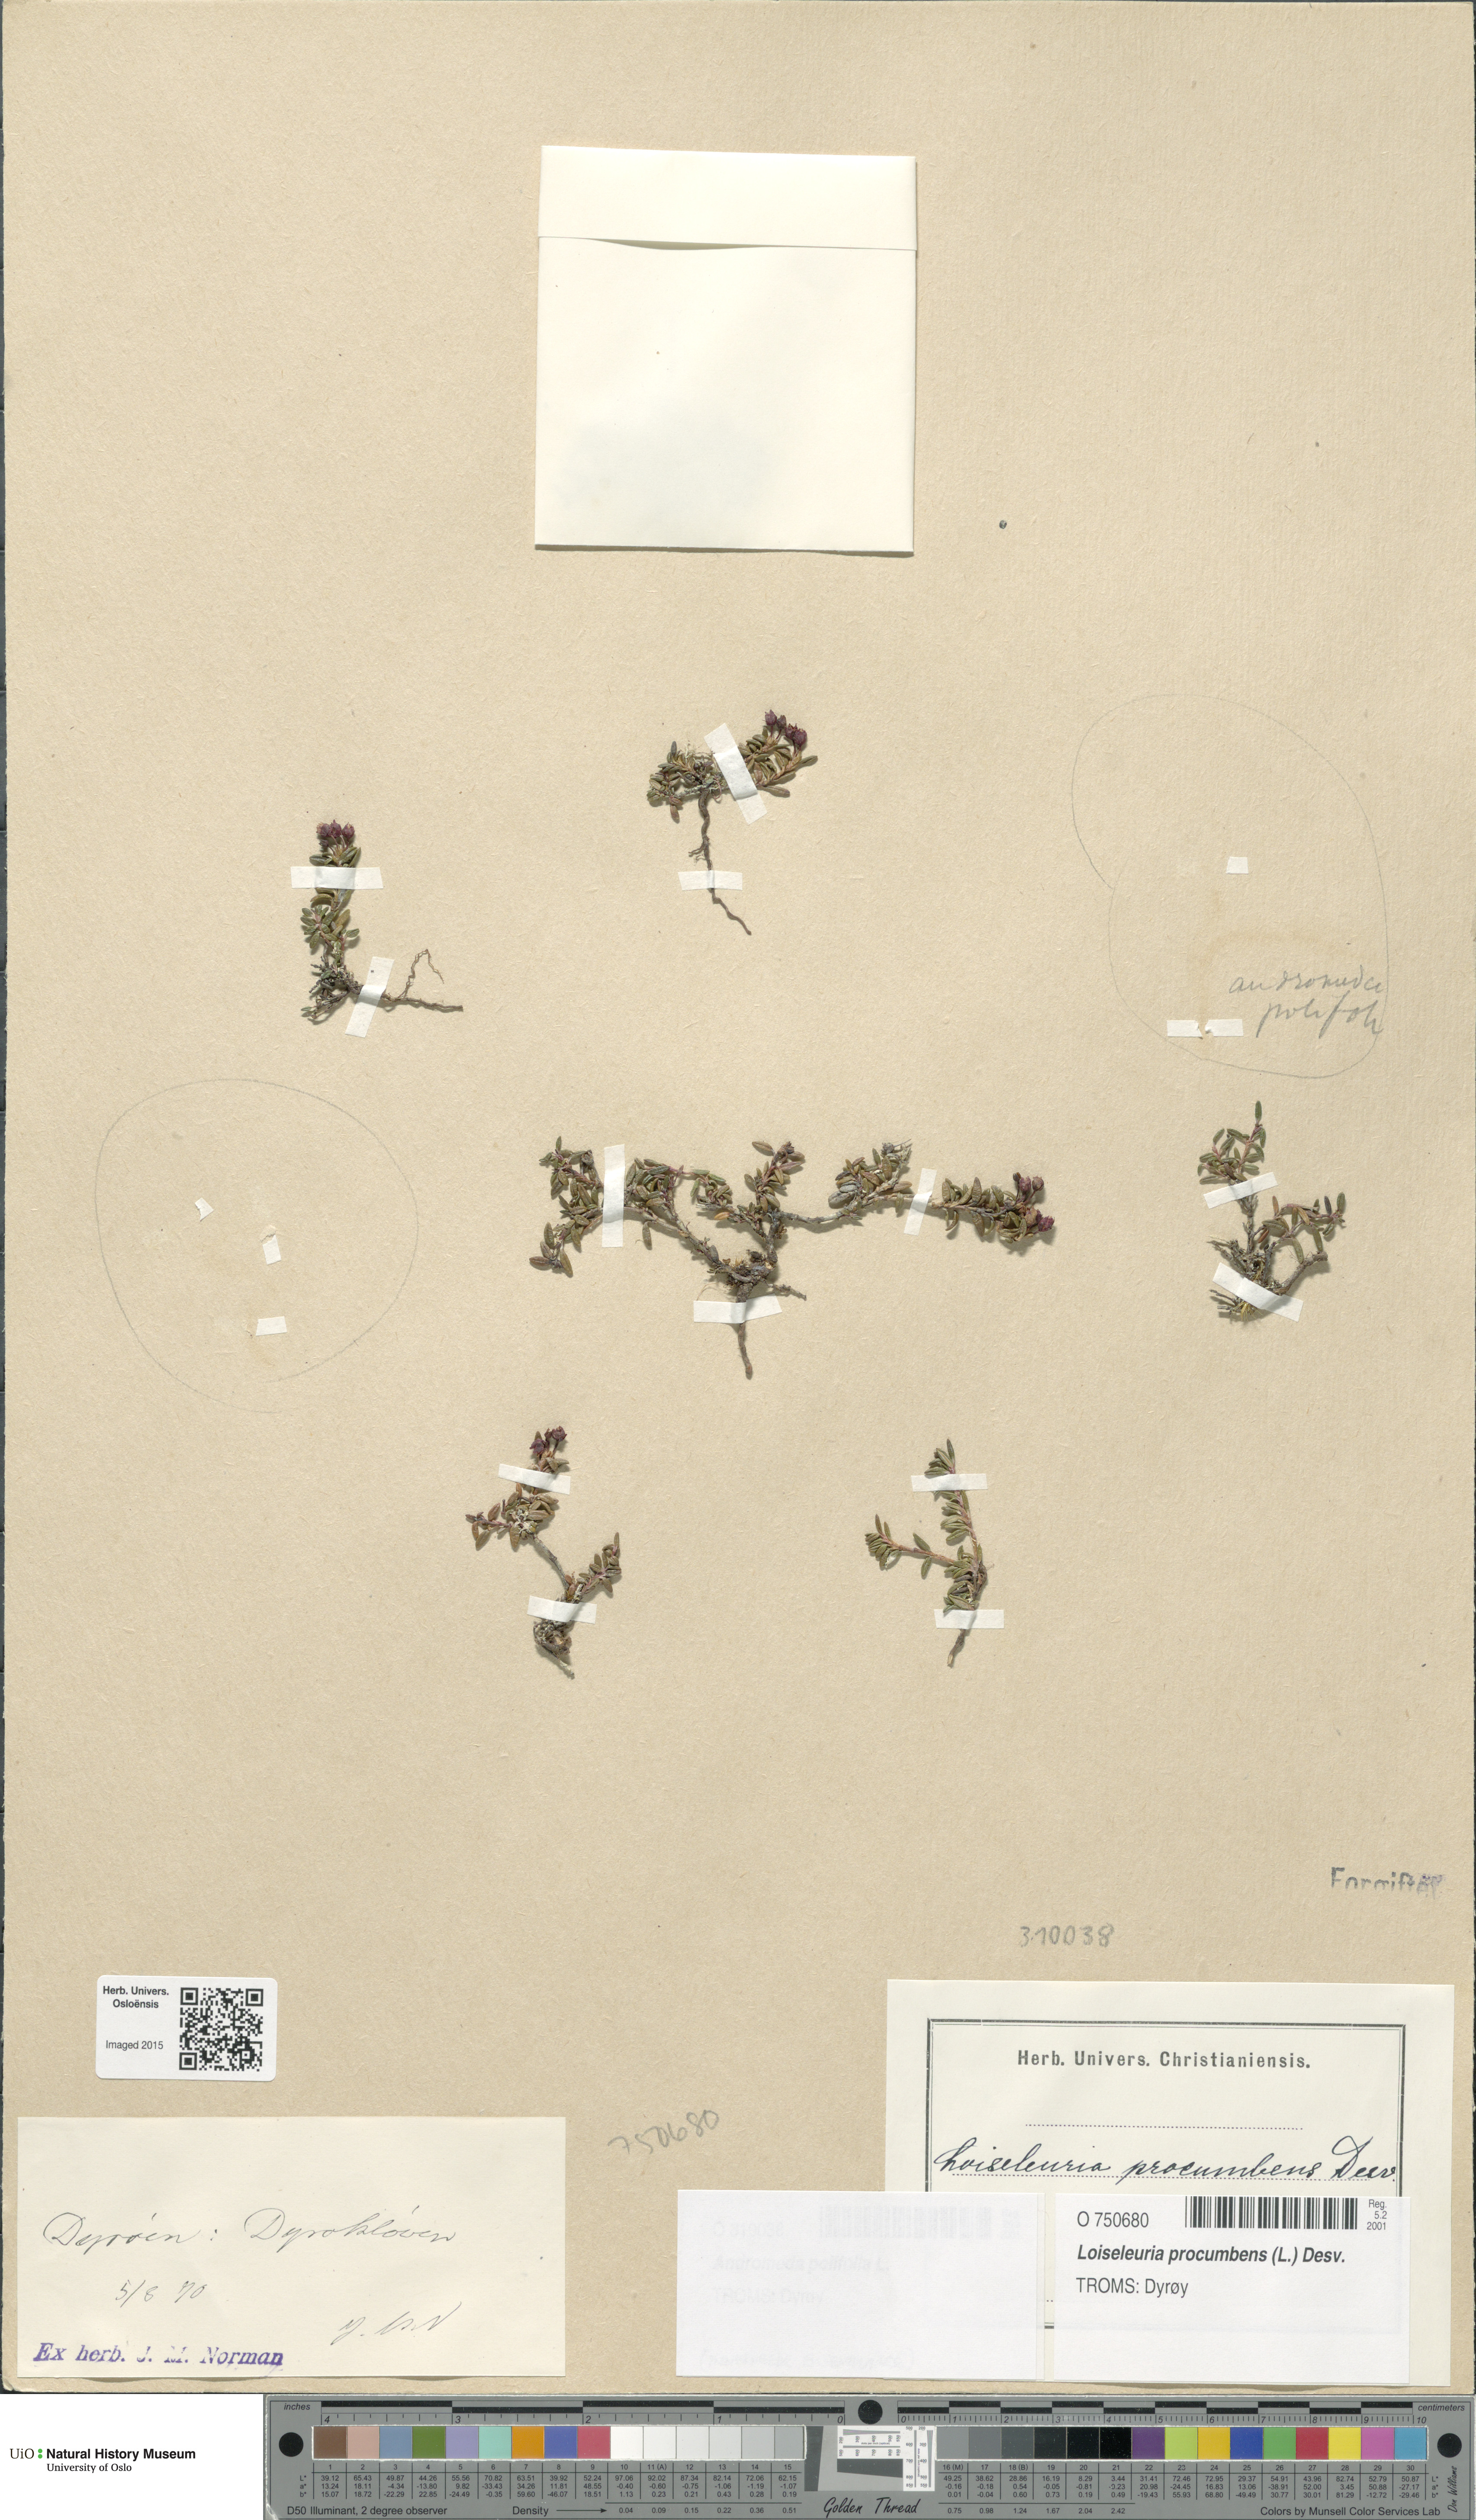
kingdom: Plantae
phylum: Tracheophyta
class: Magnoliopsida
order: Ericales
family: Ericaceae
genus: Andromeda
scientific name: Andromeda polifolia
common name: Bog-rosemary
